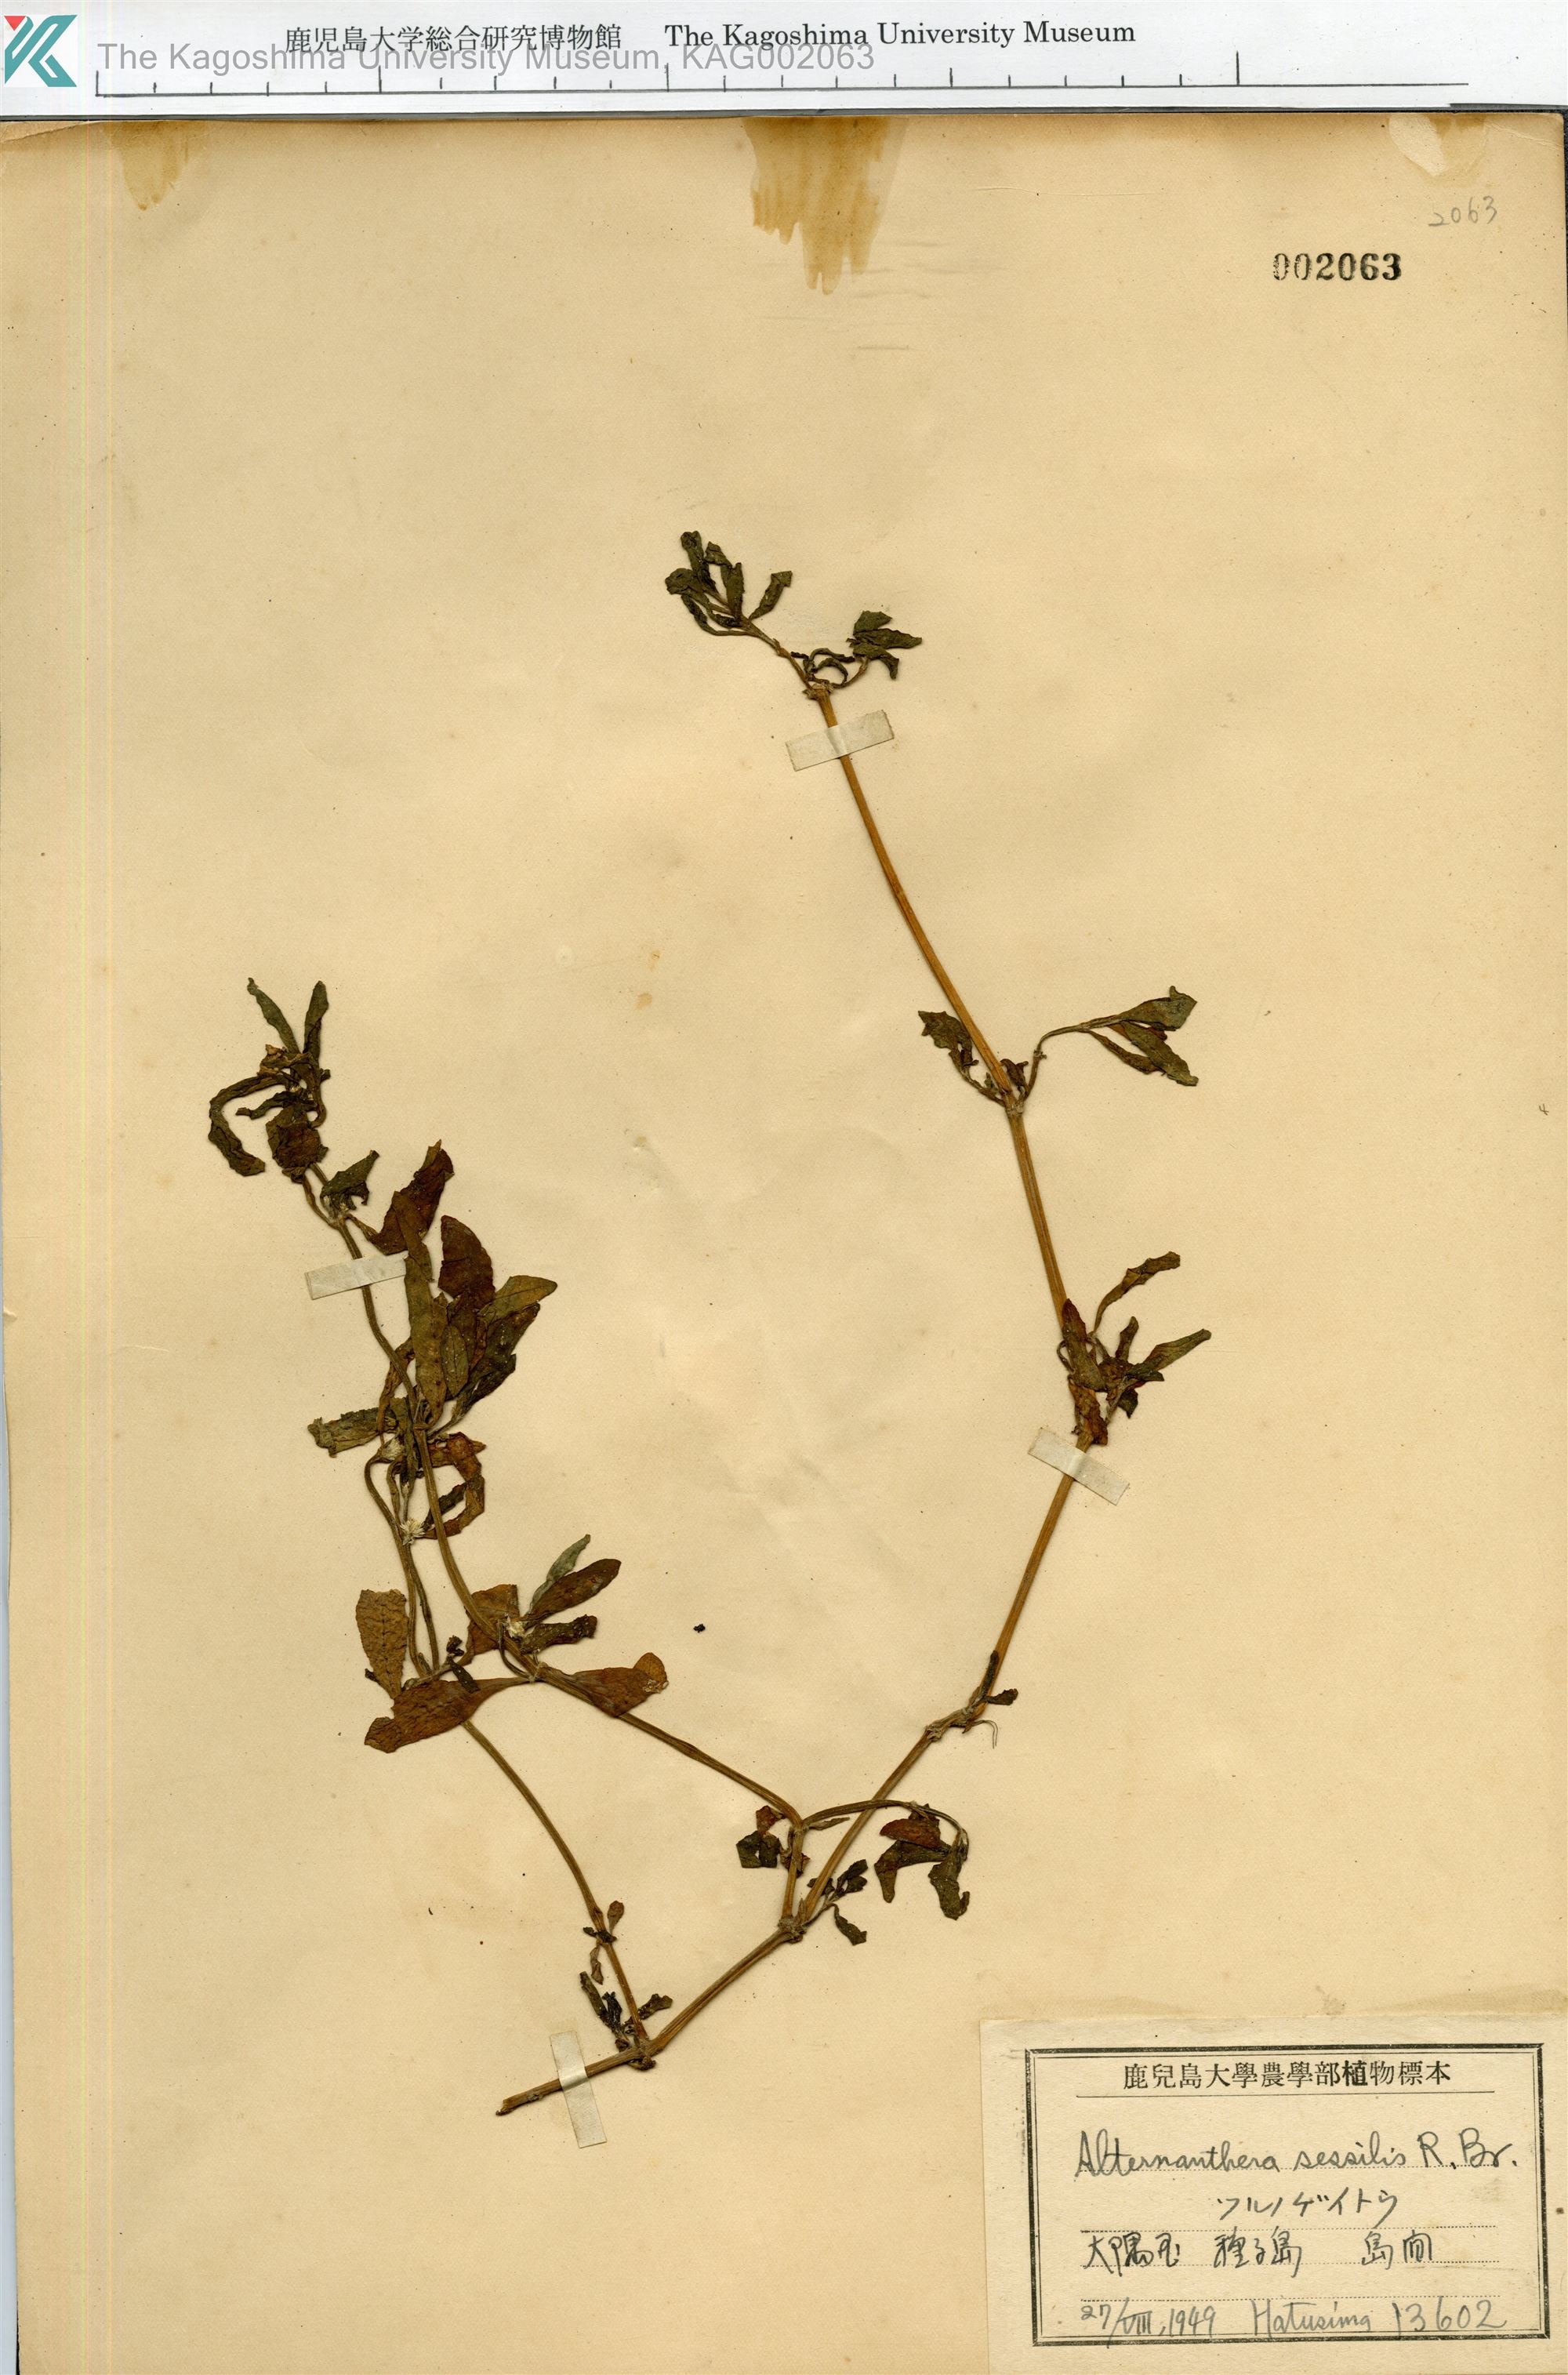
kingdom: Plantae
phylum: Tracheophyta
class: Magnoliopsida
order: Caryophyllales
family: Amaranthaceae
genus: Alternanthera
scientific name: Alternanthera sessilis
